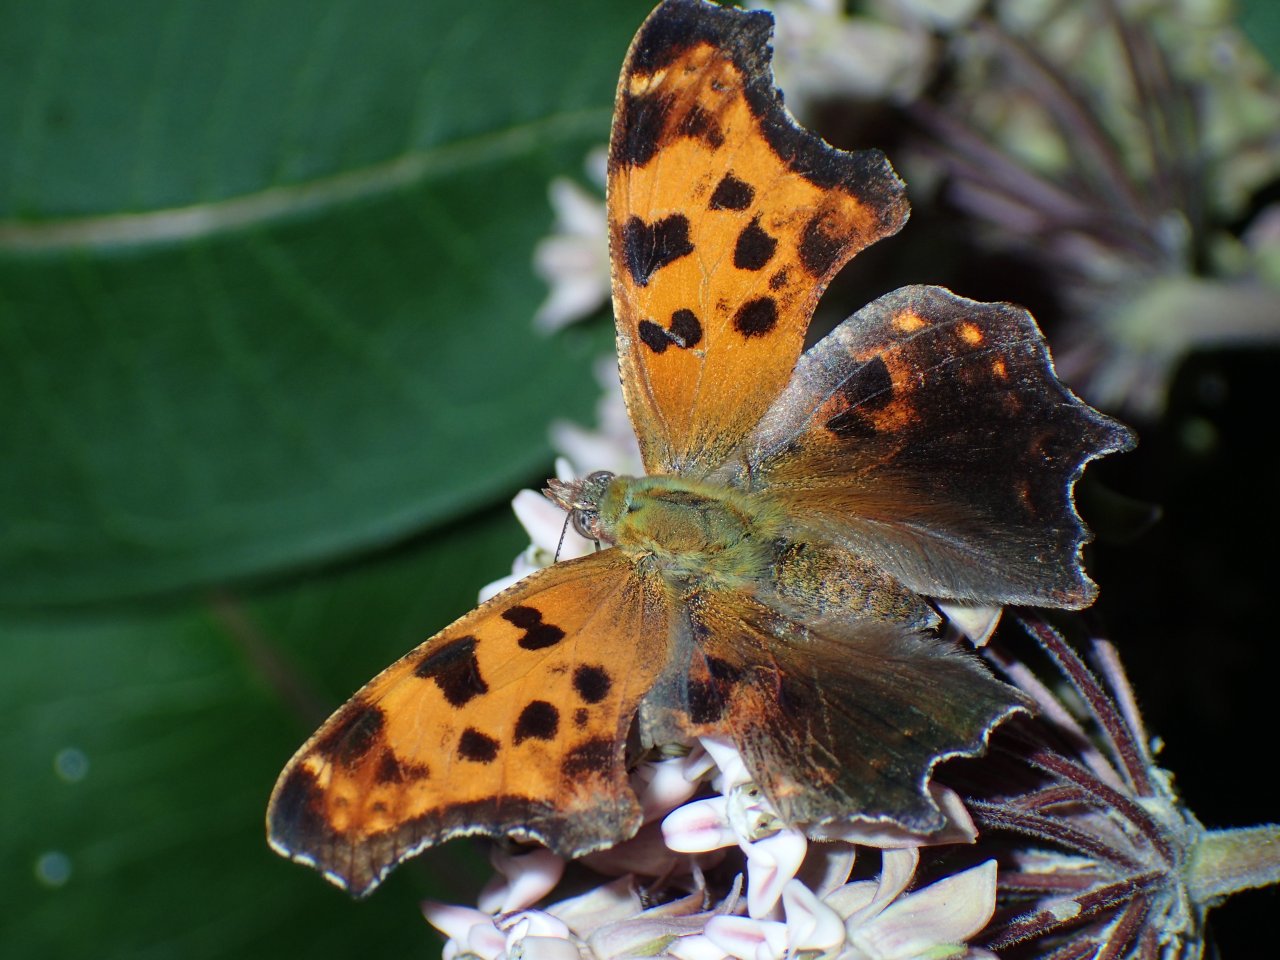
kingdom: Animalia
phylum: Arthropoda
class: Insecta
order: Lepidoptera
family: Nymphalidae
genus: Polygonia
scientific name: Polygonia comma
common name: Eastern Comma
